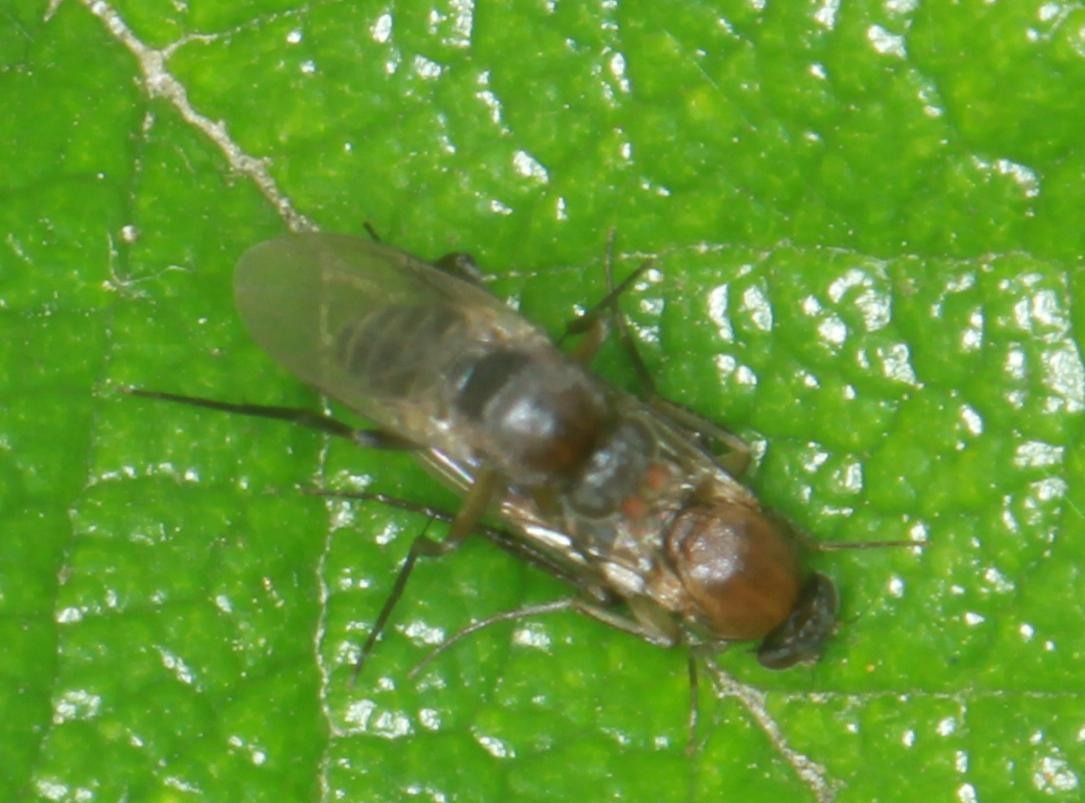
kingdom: Animalia
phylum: Arthropoda
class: Insecta
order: Diptera
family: Phoridae
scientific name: Phoridae
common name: Pukkelfluer
